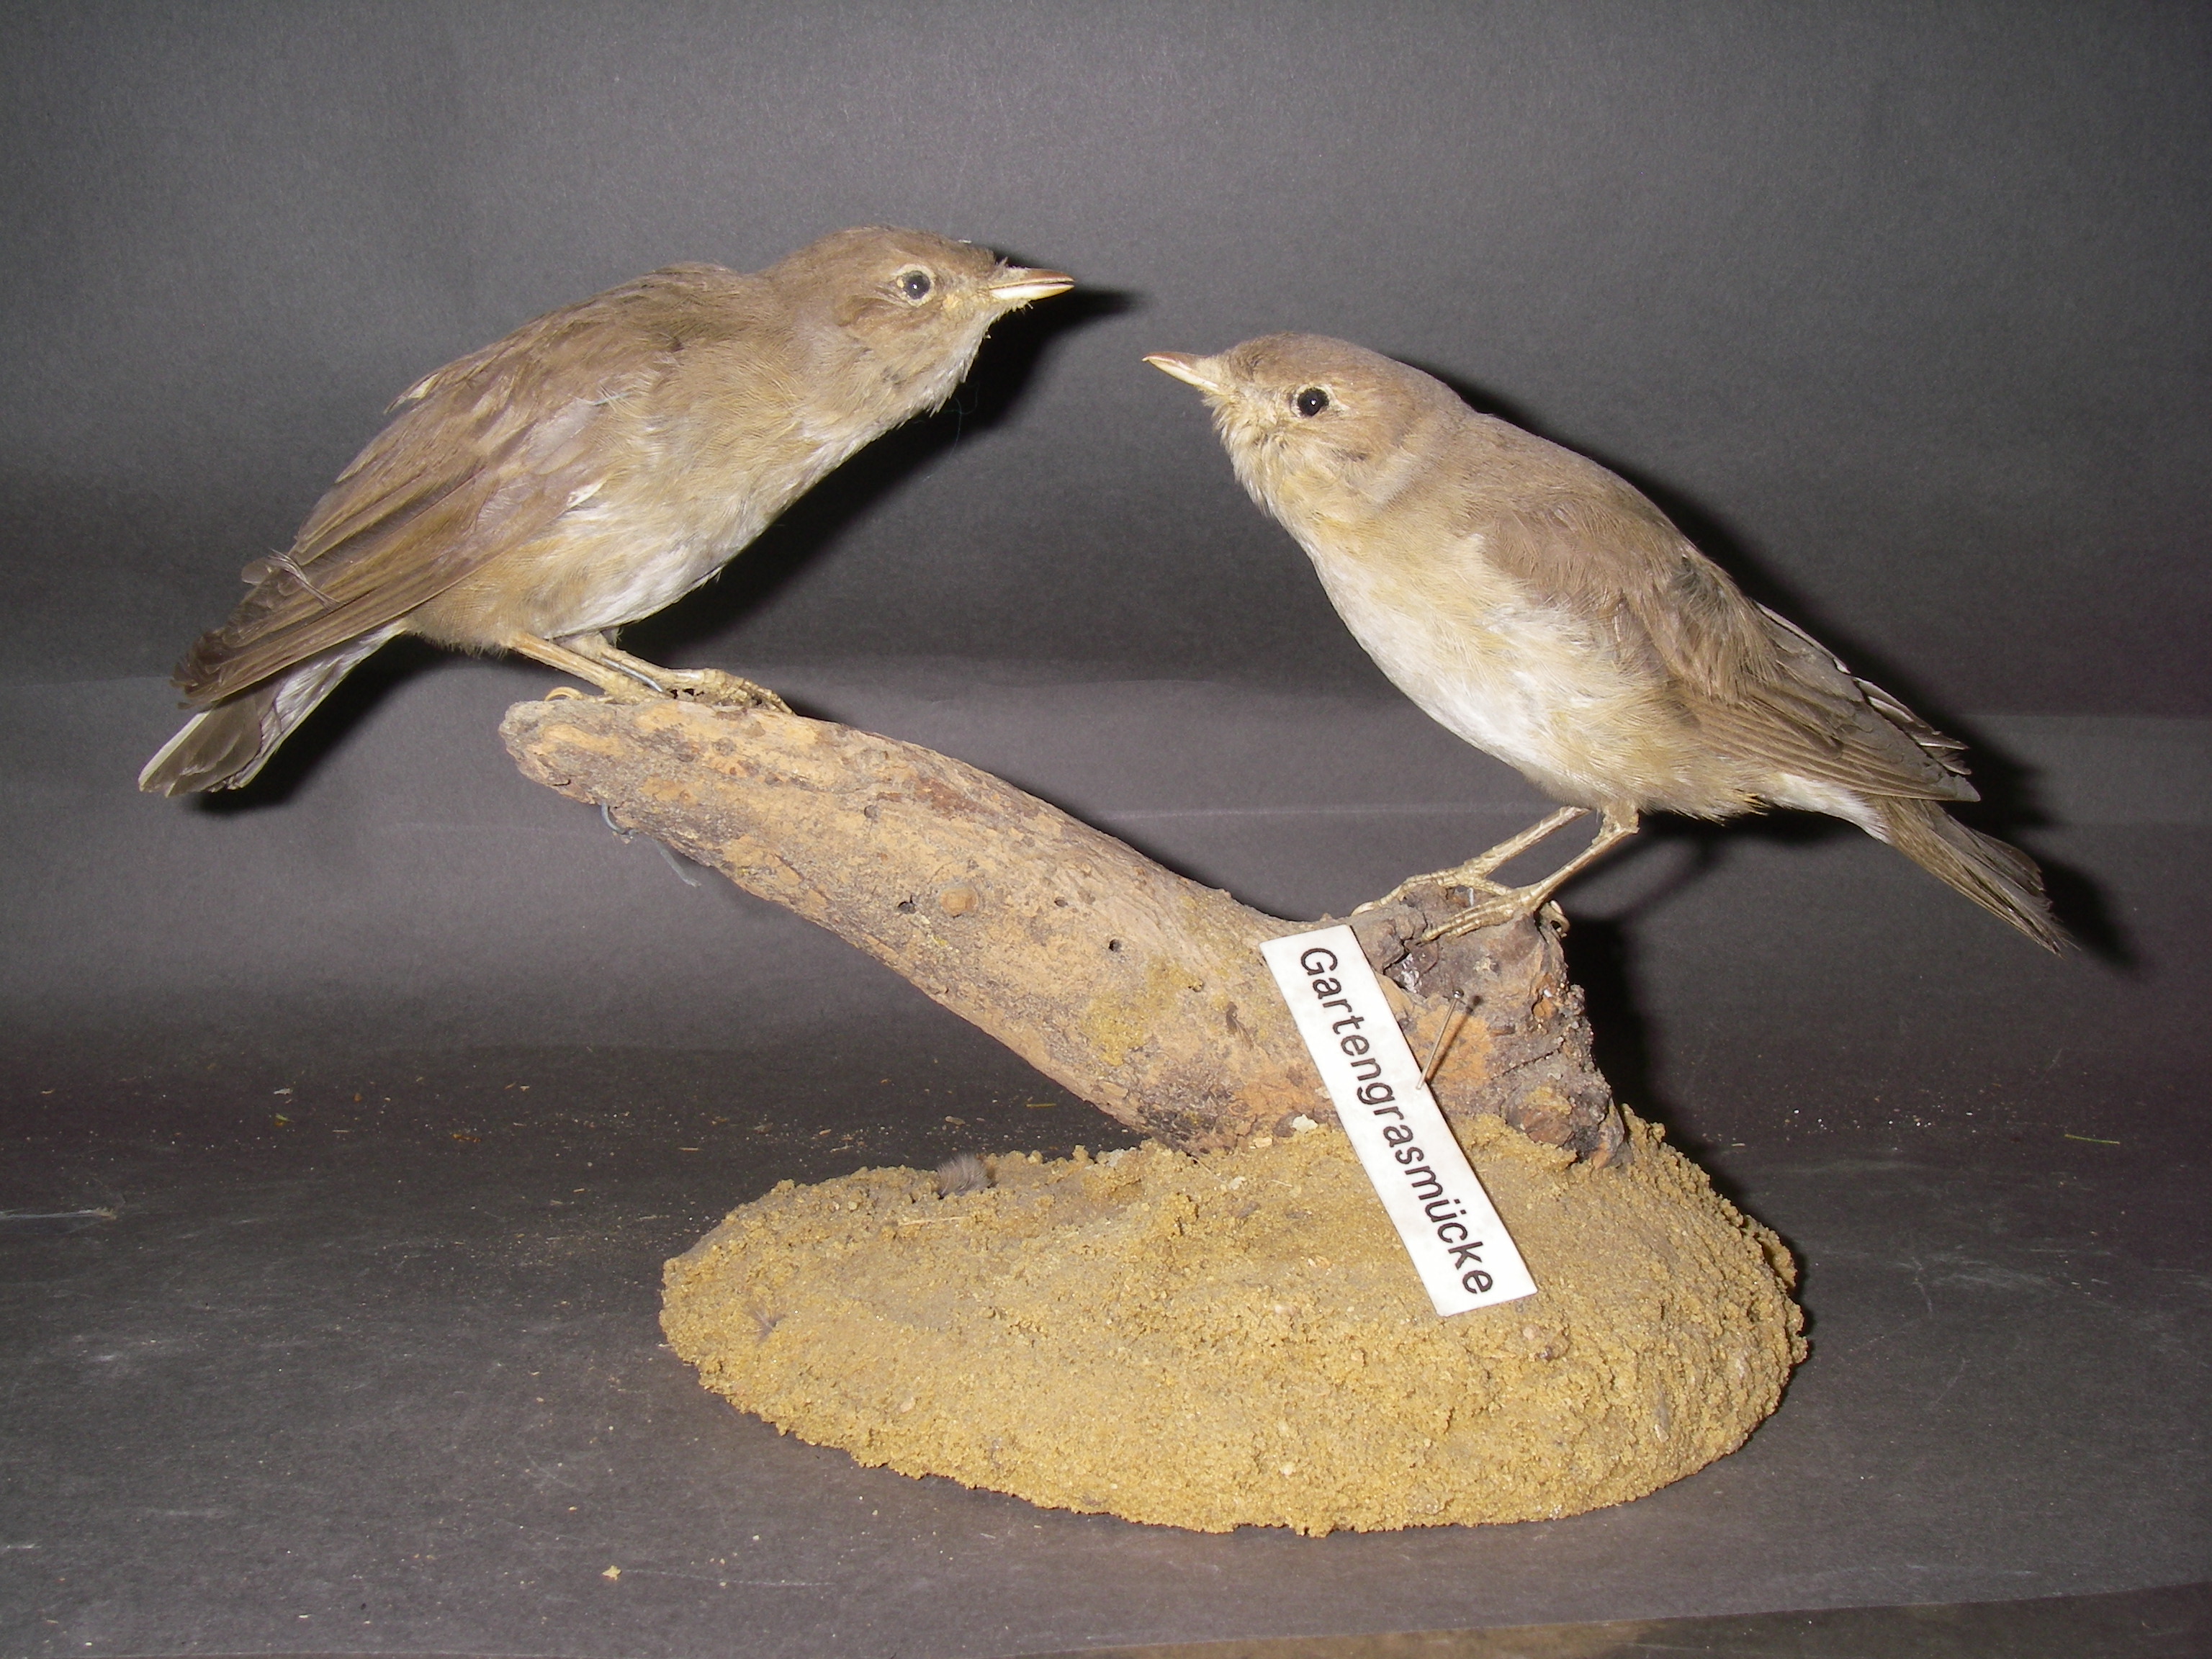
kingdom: Animalia
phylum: Chordata
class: Aves
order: Passeriformes
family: Sylviidae
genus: Sylvia
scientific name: Sylvia borin
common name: Garden warbler
